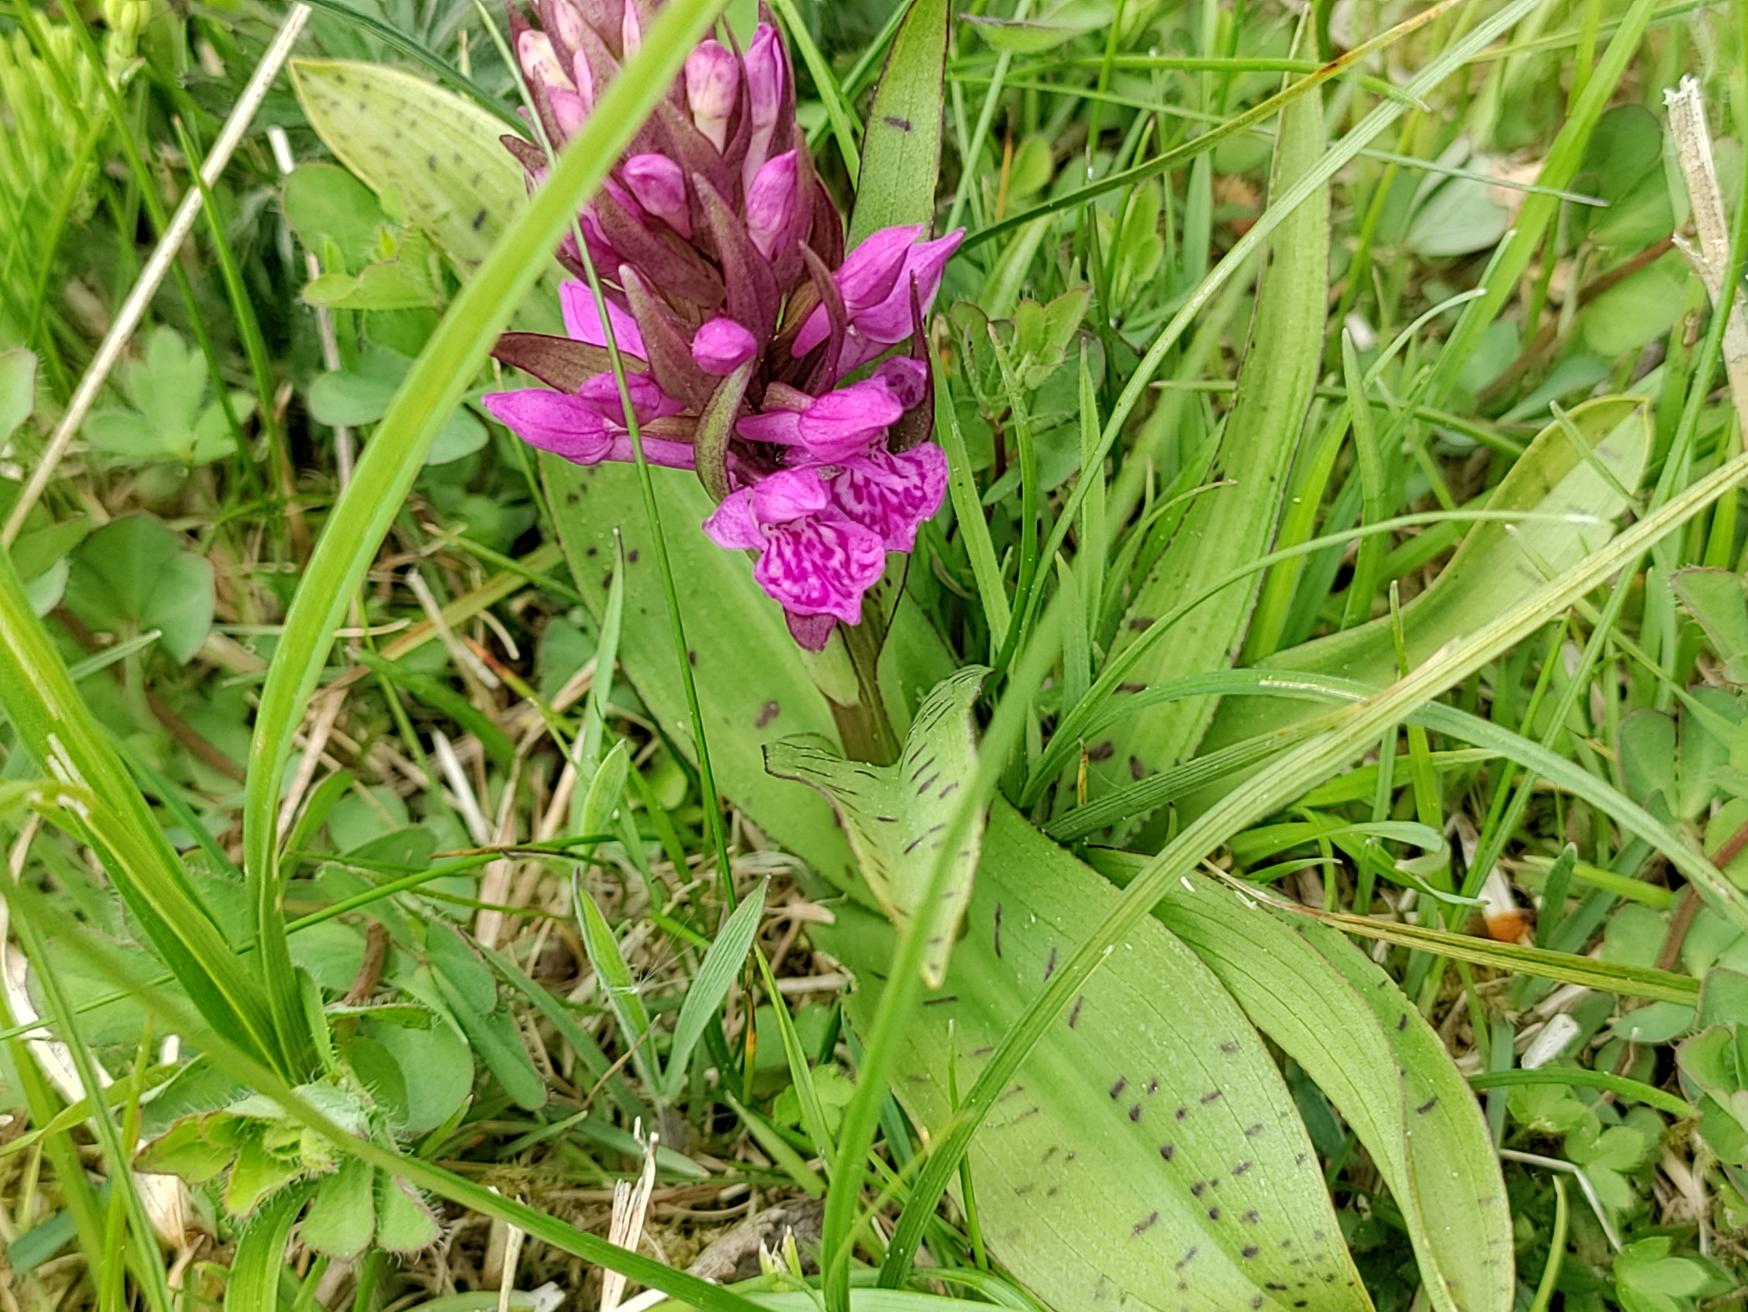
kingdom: Plantae
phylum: Tracheophyta
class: Liliopsida
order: Asparagales
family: Orchidaceae
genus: Dactylorhiza
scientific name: Dactylorhiza majalis
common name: Maj-gøgeurt
